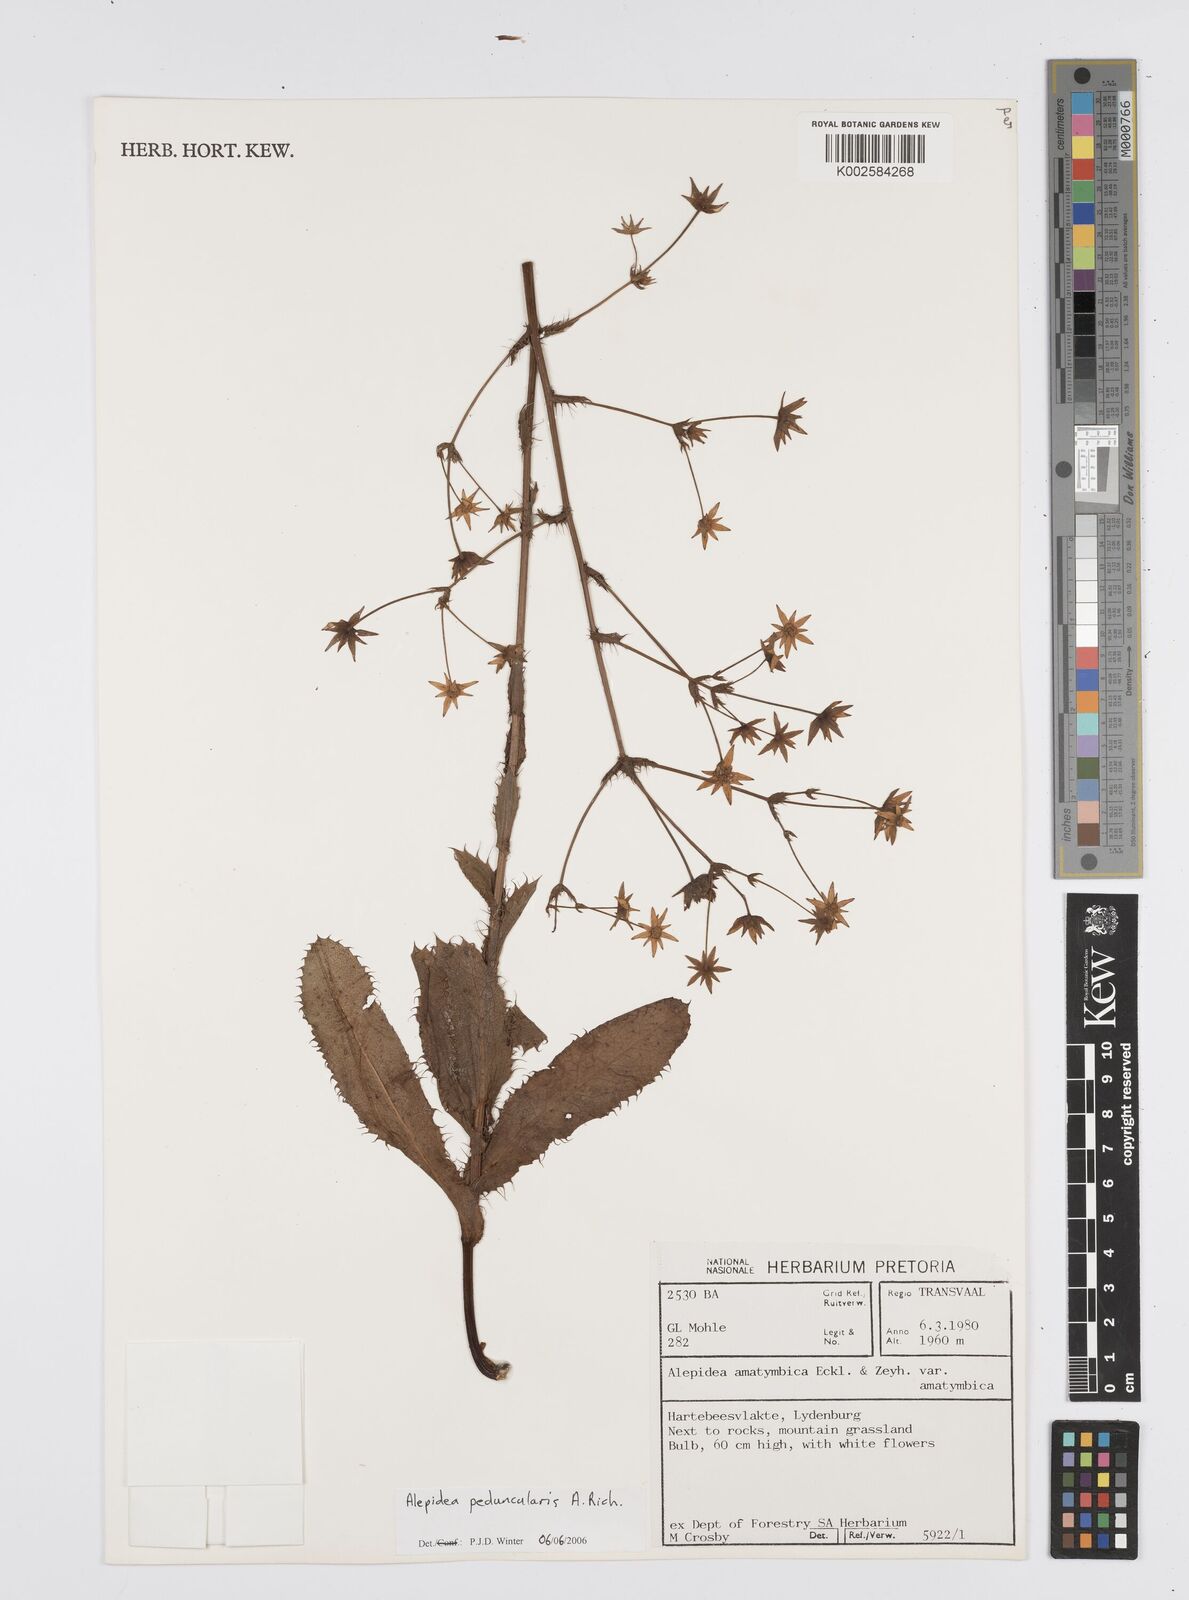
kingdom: Plantae
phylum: Tracheophyta
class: Magnoliopsida
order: Apiales
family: Apiaceae
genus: Alepidea
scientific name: Alepidea peduncularis
